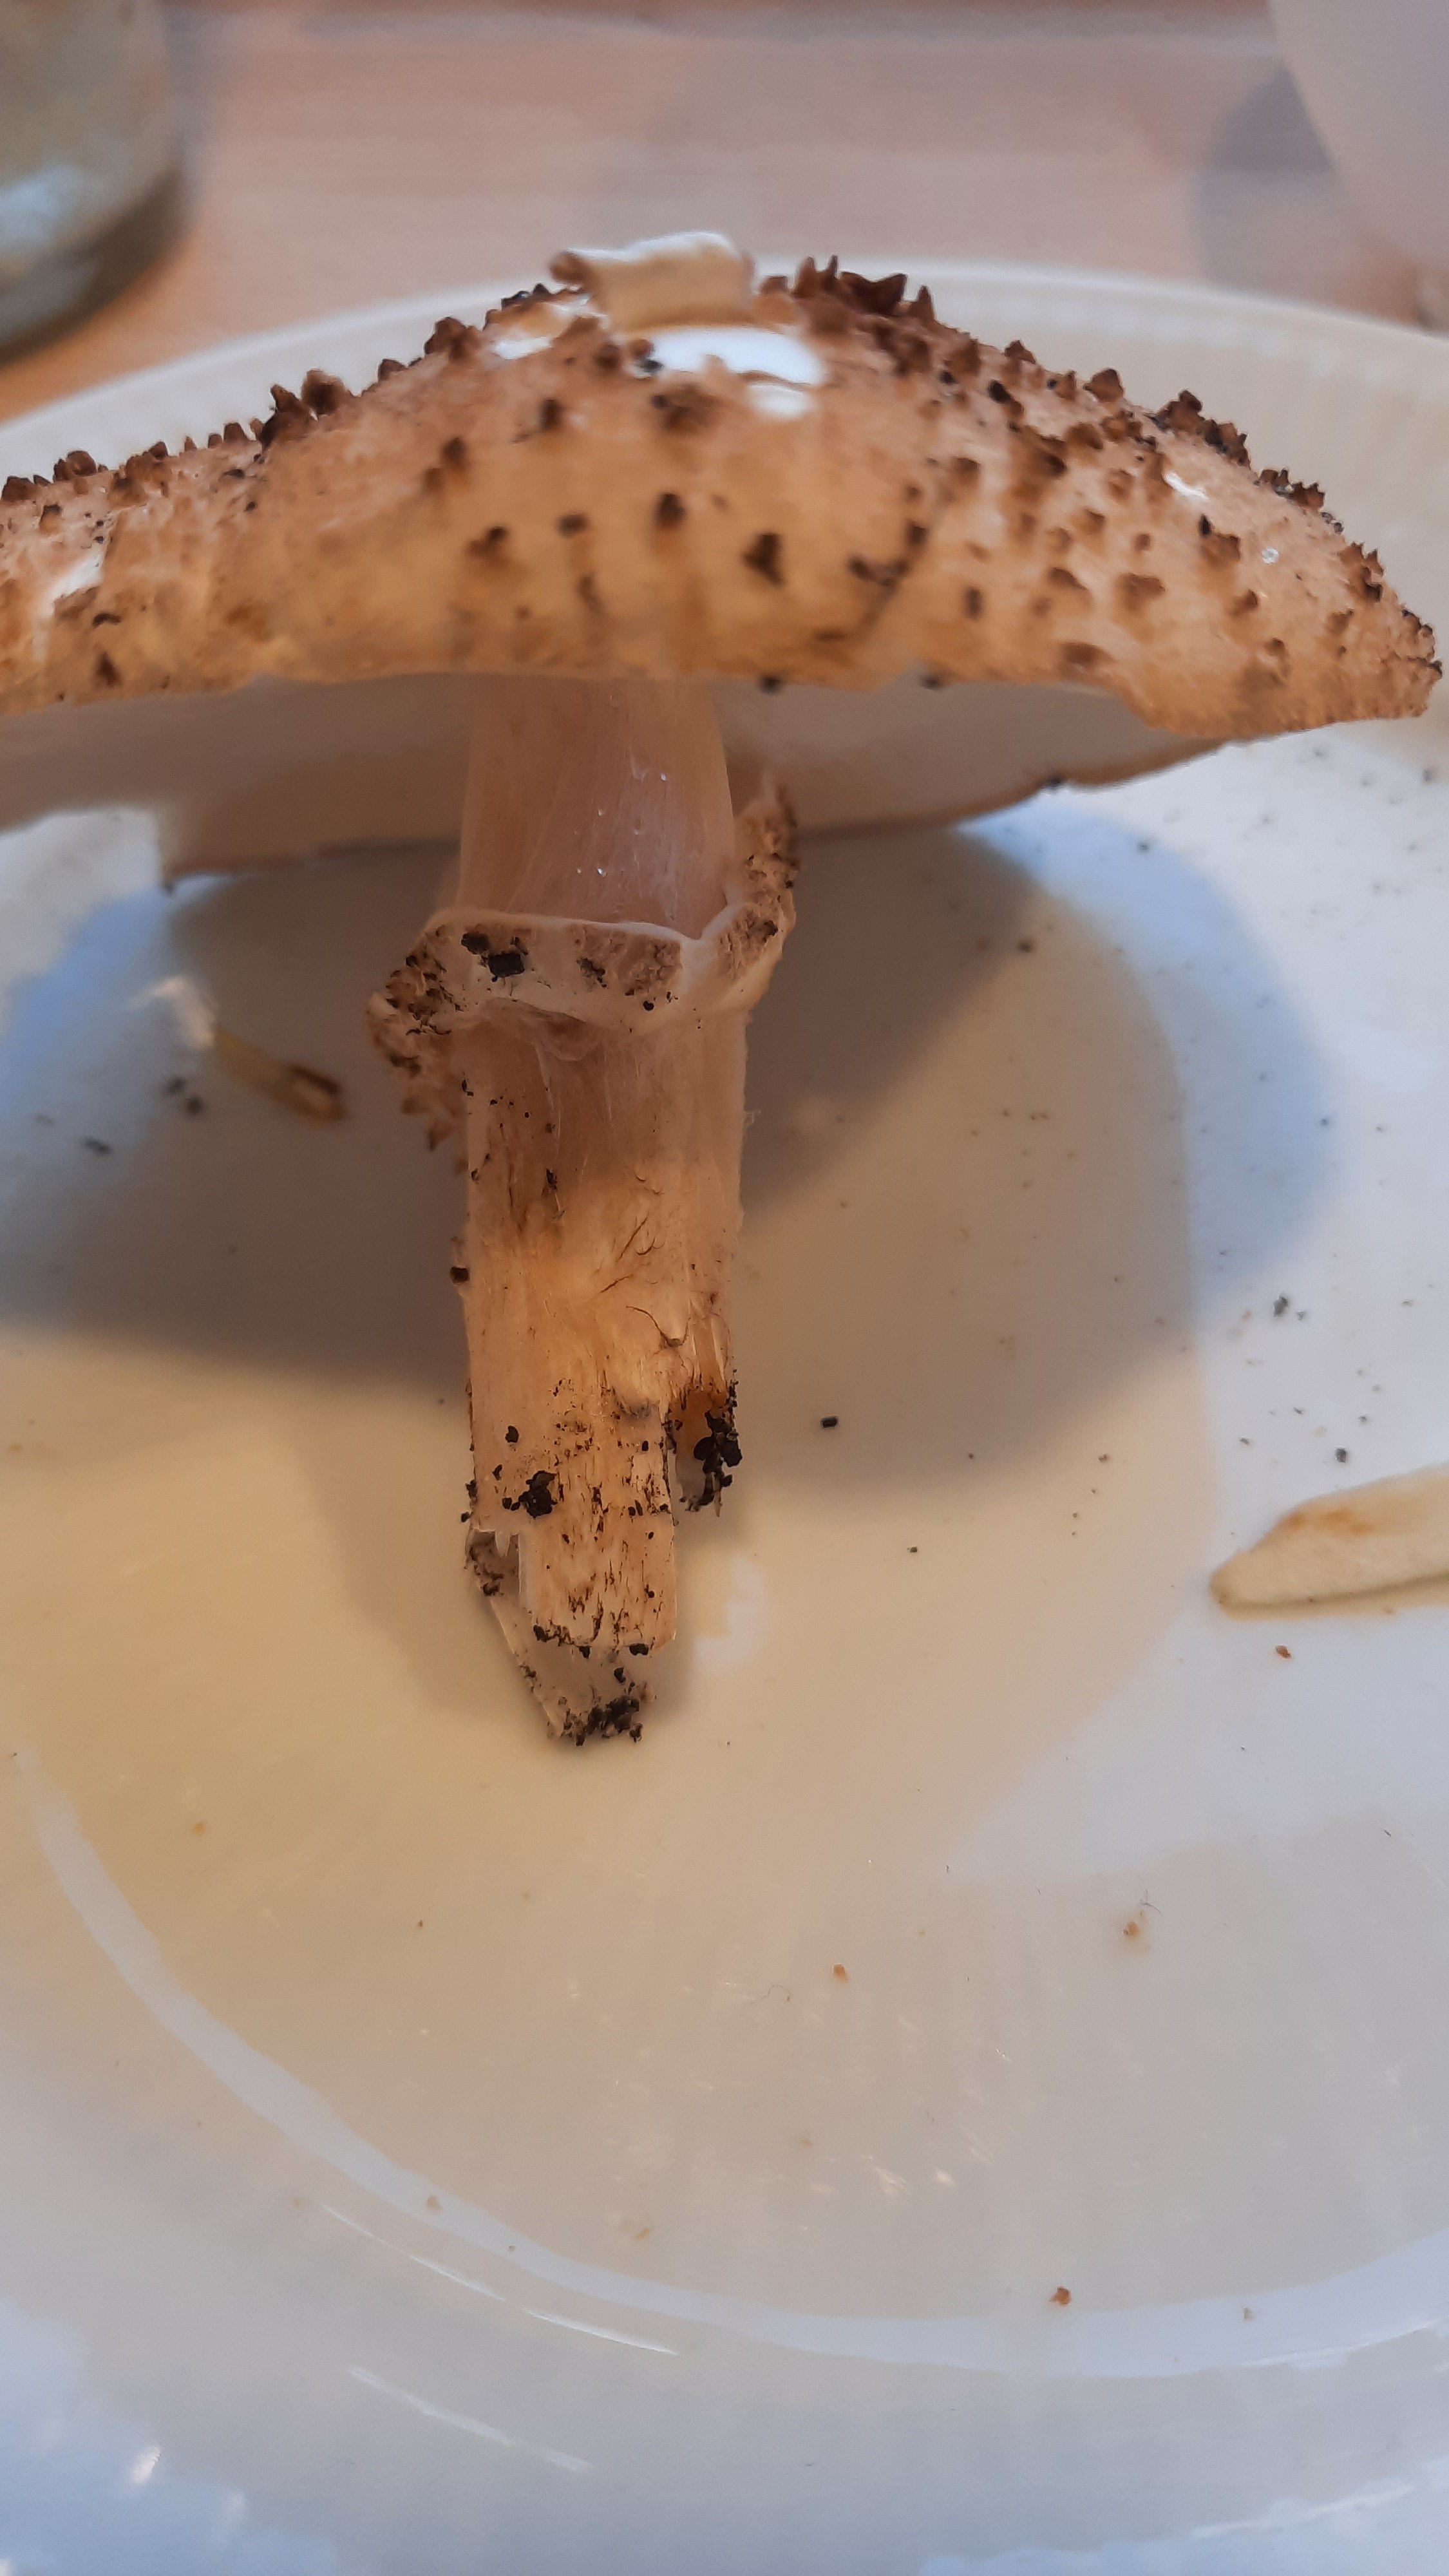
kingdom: Fungi
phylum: Basidiomycota
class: Agaricomycetes
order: Agaricales
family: Agaricaceae
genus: Echinoderma
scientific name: Echinoderma asperum
